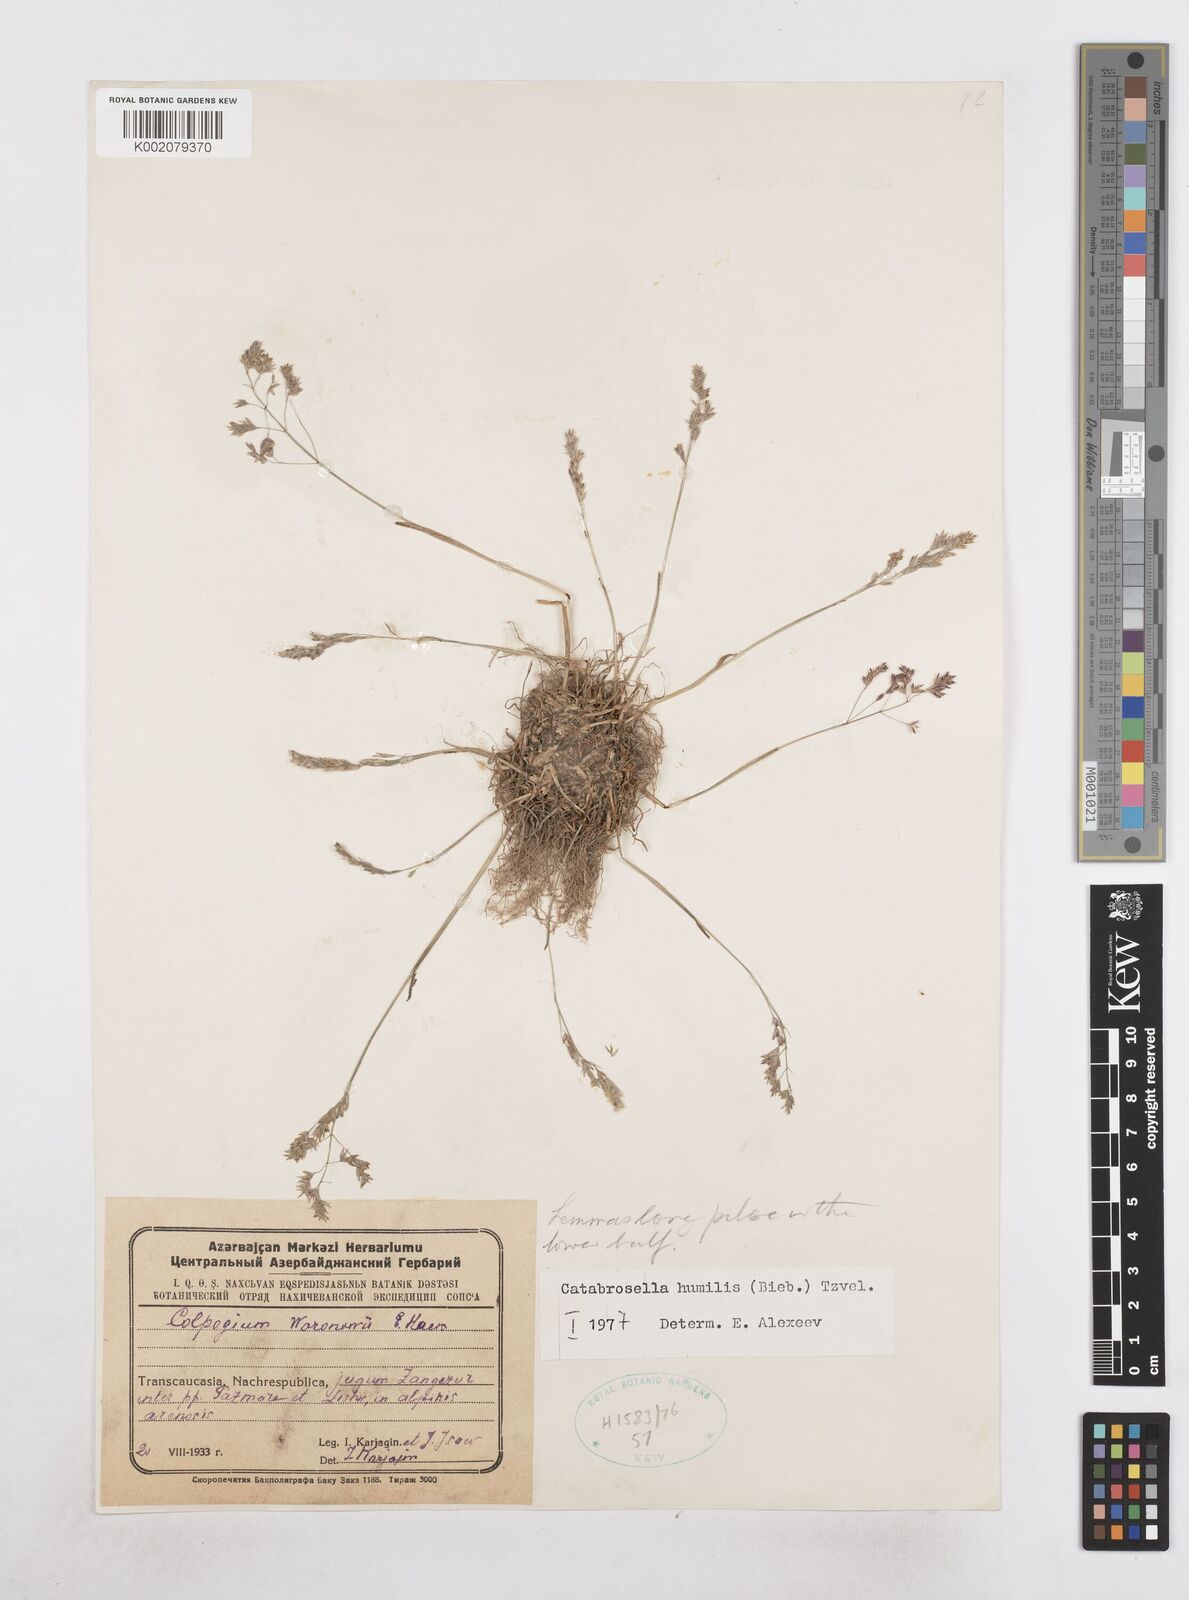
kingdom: Plantae
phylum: Tracheophyta
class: Liliopsida
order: Poales
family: Poaceae
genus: Catabrosella
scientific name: Catabrosella humilis
